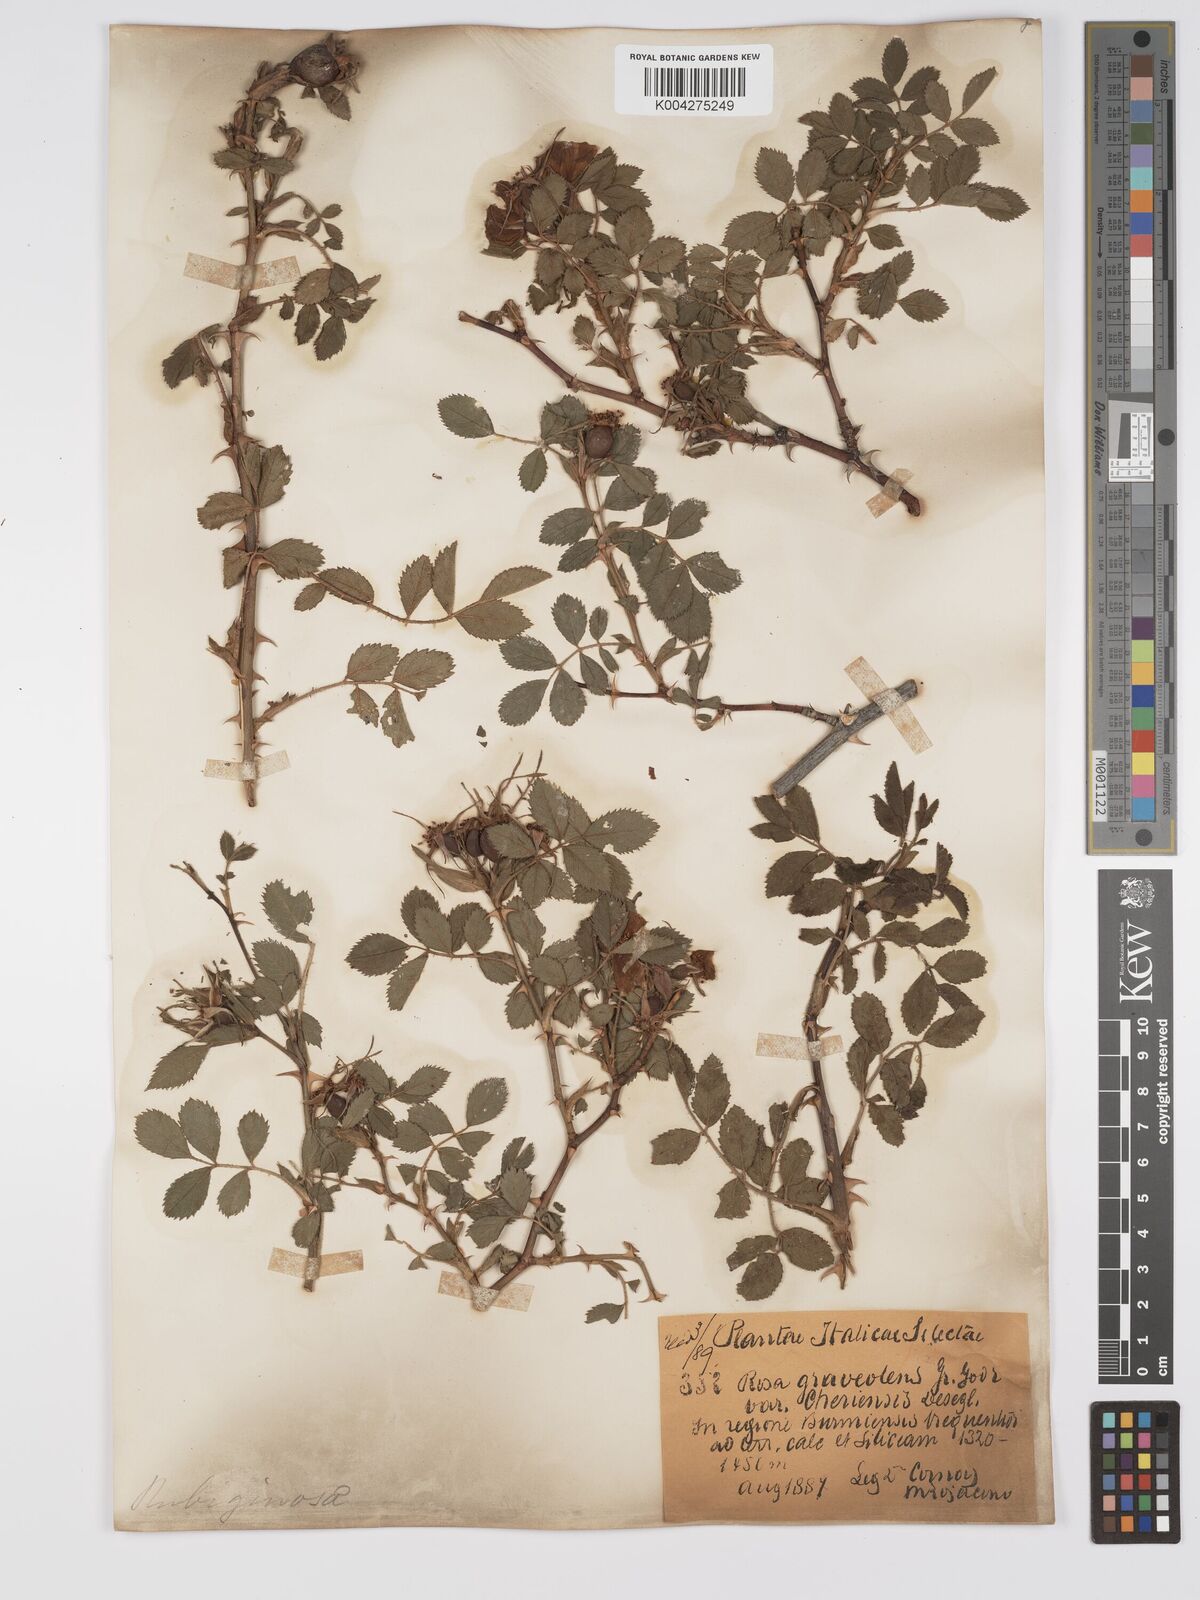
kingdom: Plantae
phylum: Tracheophyta
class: Magnoliopsida
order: Rosales
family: Rosaceae
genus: Rosa
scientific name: Rosa
